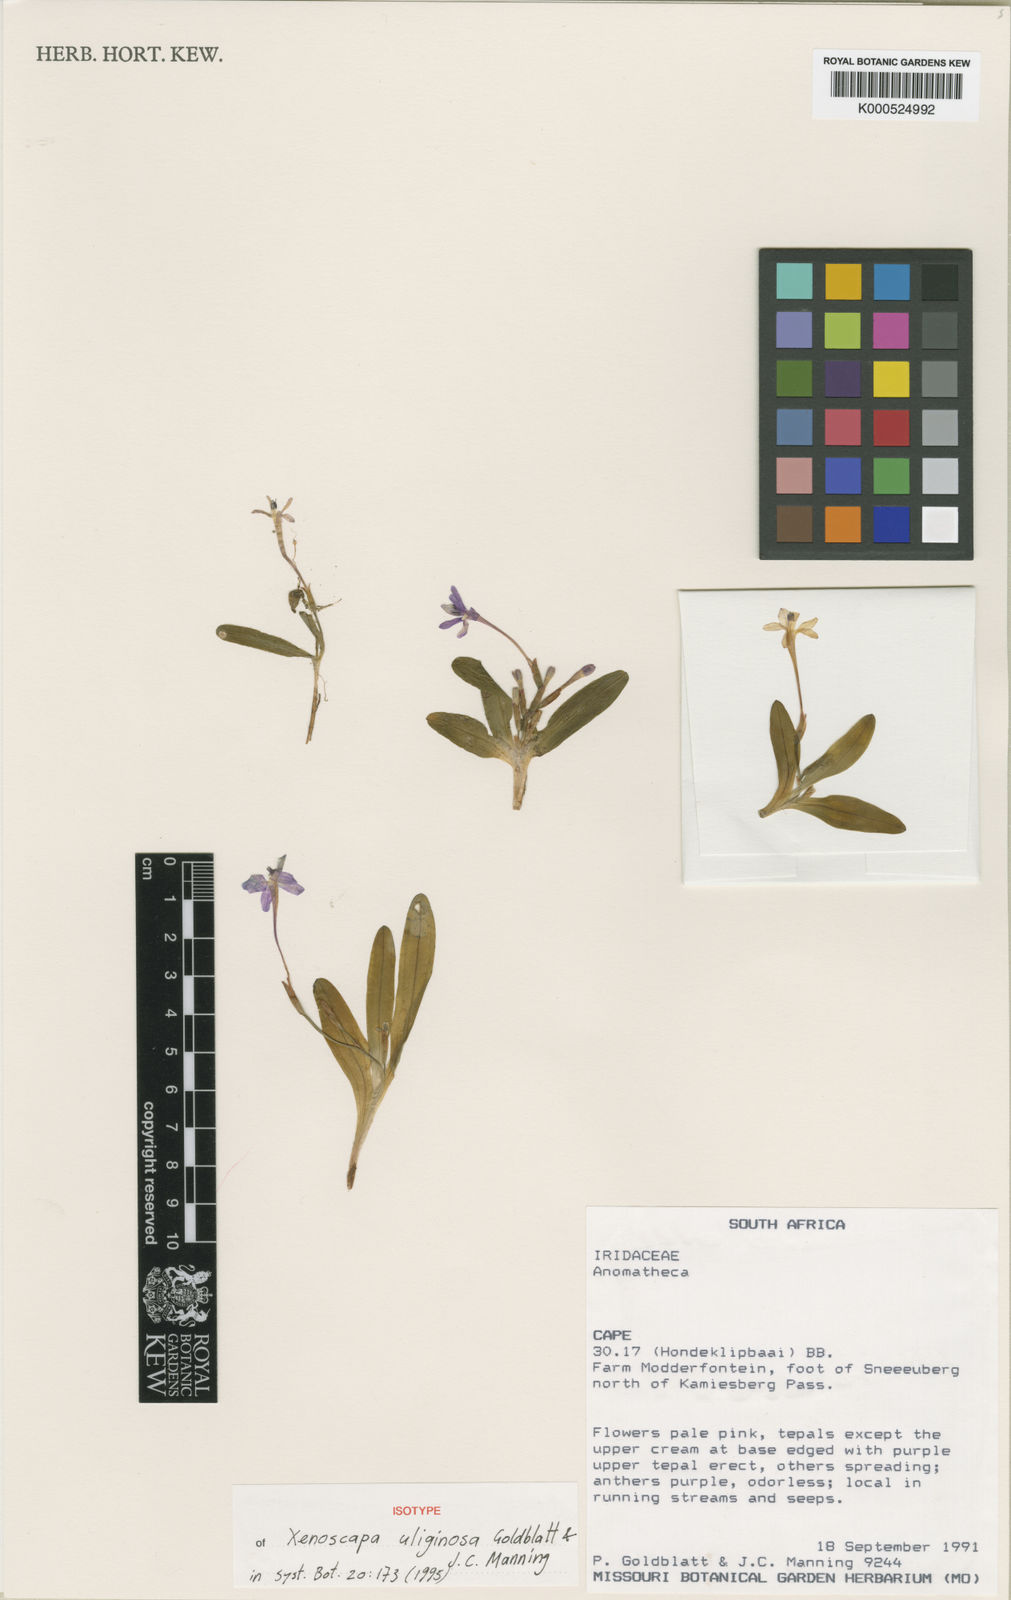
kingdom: Plantae
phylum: Tracheophyta
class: Liliopsida
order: Asparagales
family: Iridaceae
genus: Xenoscapa
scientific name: Xenoscapa uliginosa
